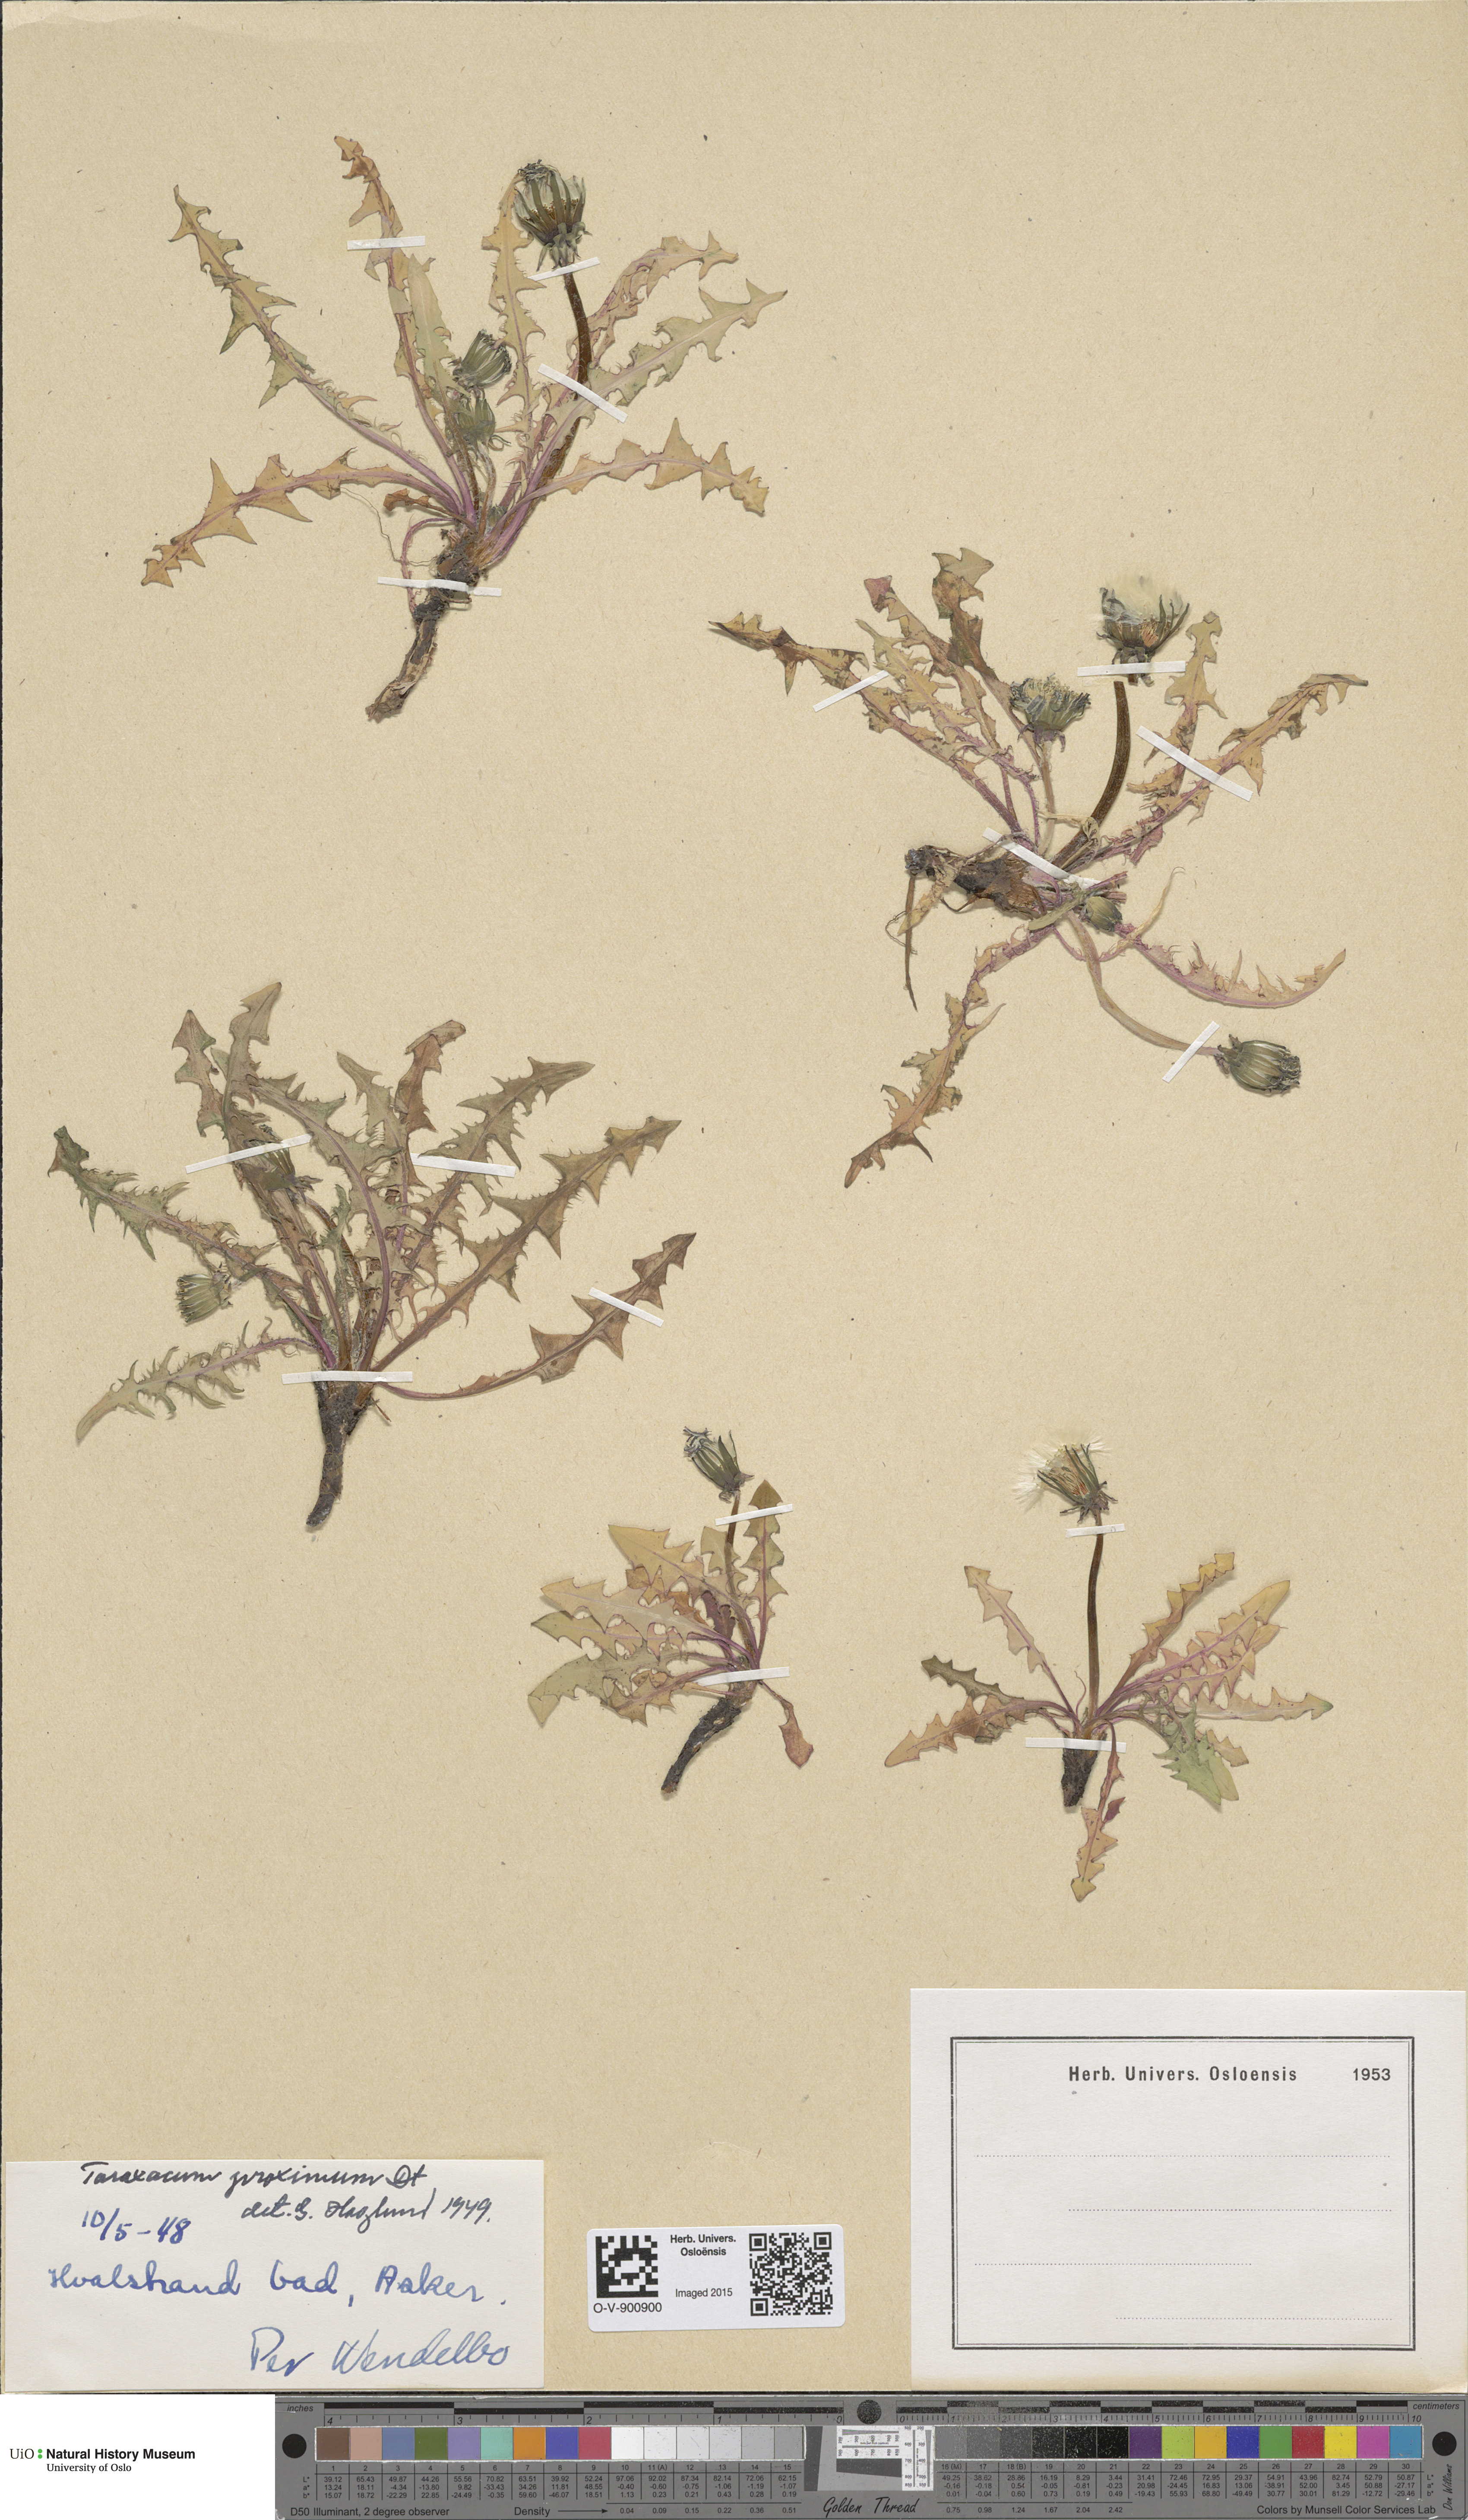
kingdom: Plantae
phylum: Tracheophyta
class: Magnoliopsida
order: Asterales
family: Asteraceae
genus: Taraxacum
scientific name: Taraxacum proximum
